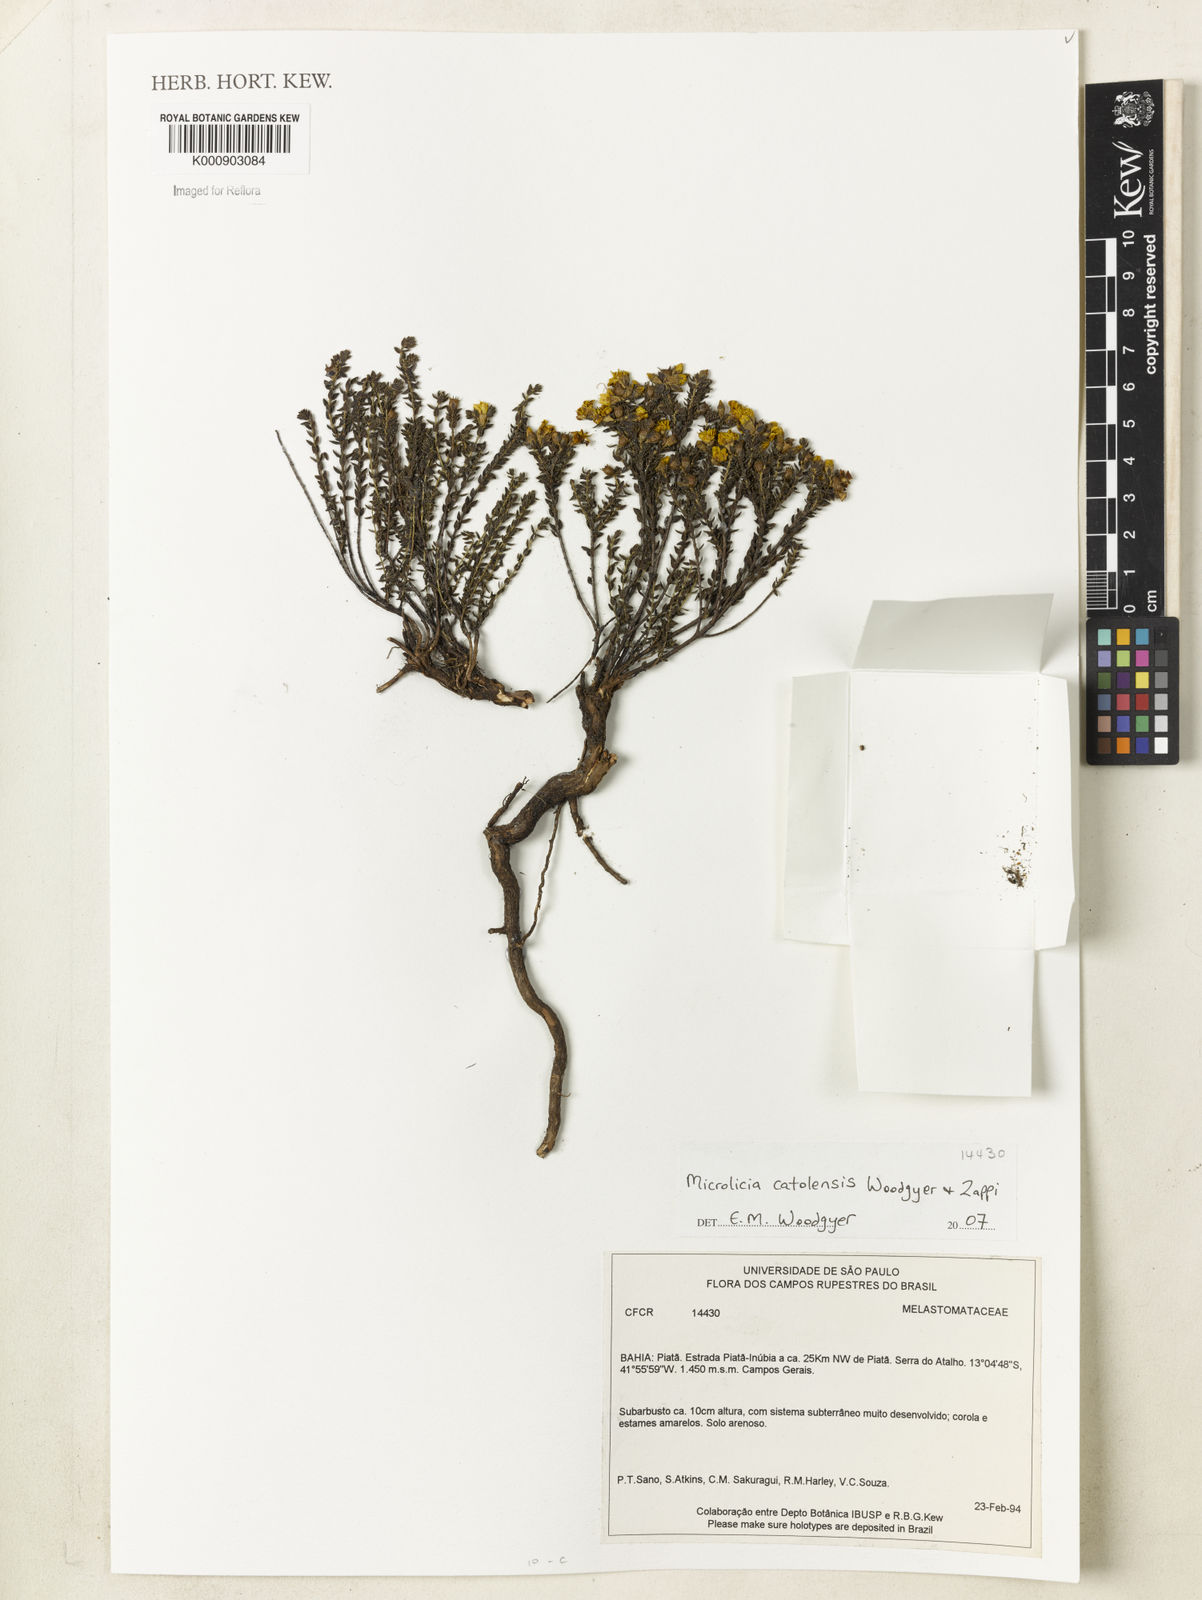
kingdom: Plantae
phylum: Tracheophyta
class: Magnoliopsida
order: Myrtales
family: Melastomataceae
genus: Microlicia
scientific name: Microlicia catolensis
